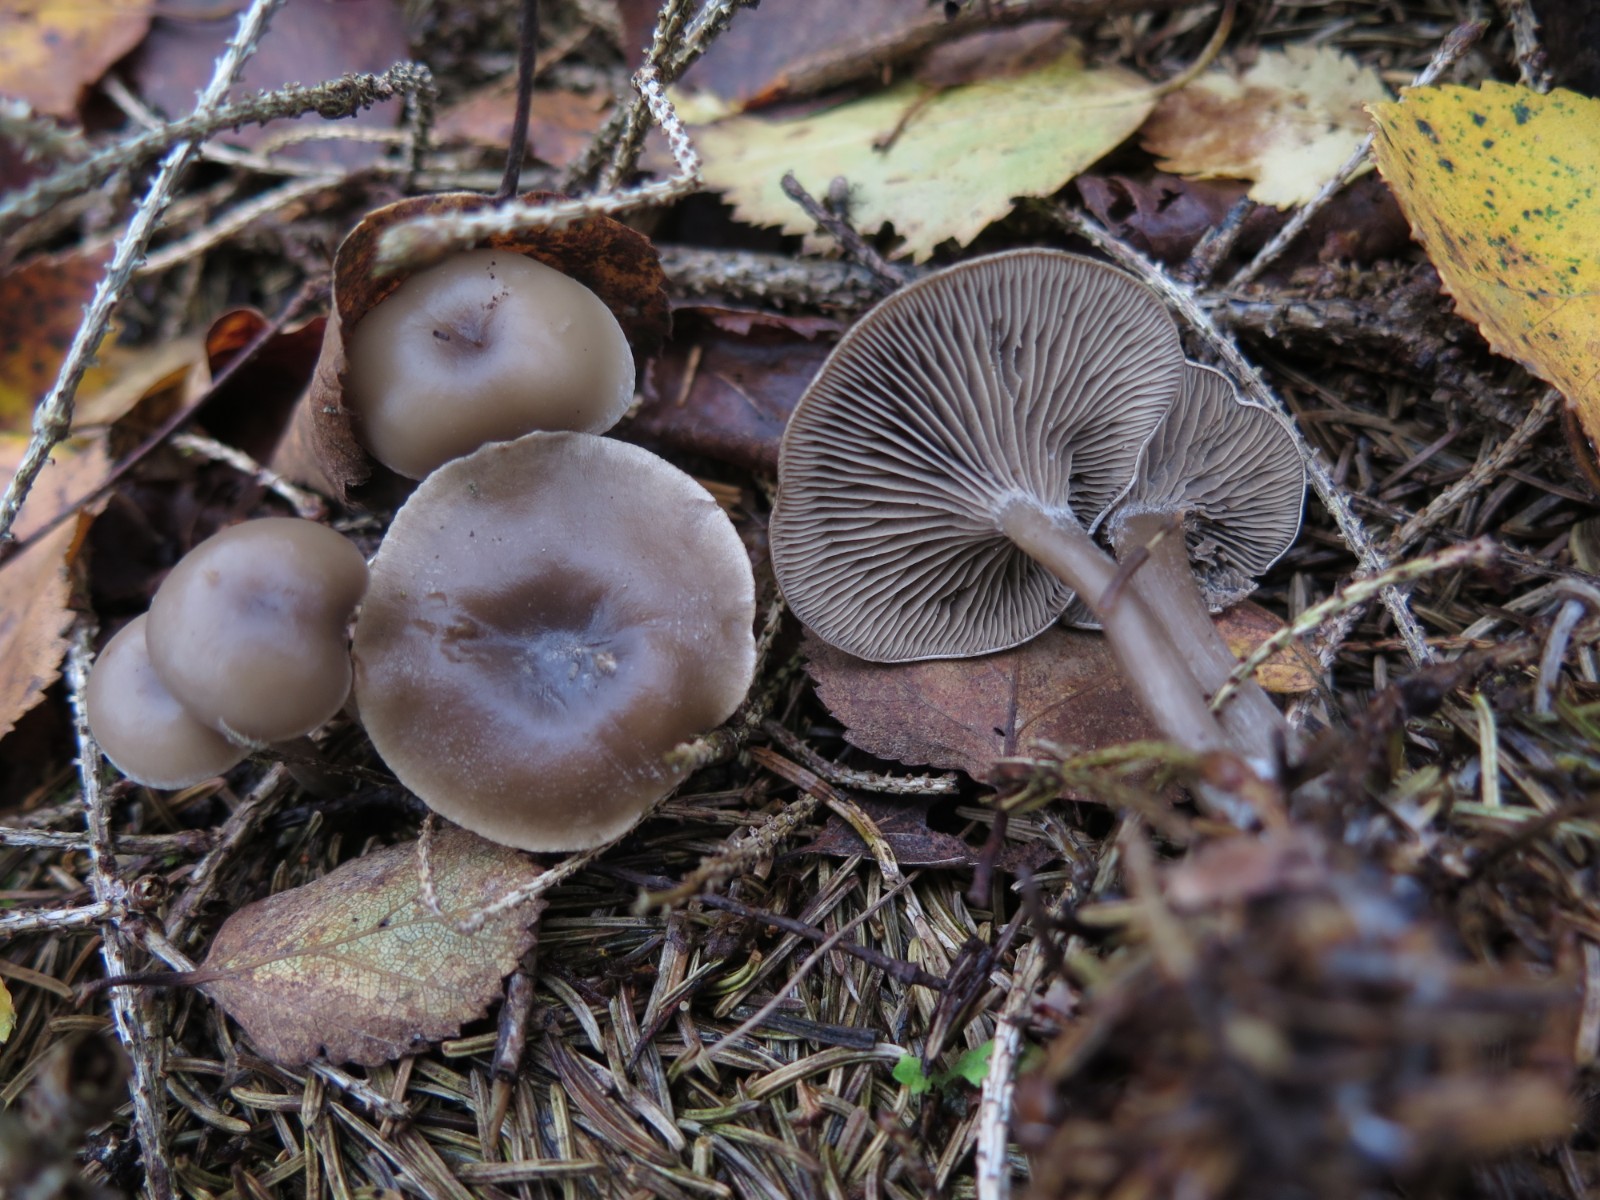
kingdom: Fungi
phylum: Basidiomycota
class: Agaricomycetes
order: Agaricales
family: Tricholomataceae
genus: Clitocybe
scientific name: Clitocybe
